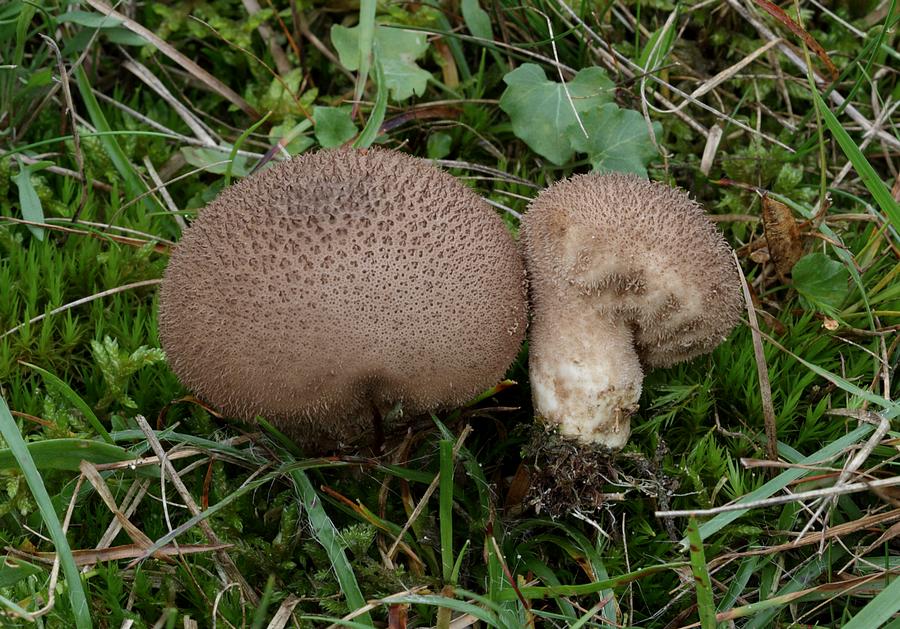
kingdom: Fungi
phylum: Basidiomycota
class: Agaricomycetes
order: Agaricales
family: Lycoperdaceae
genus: Lycoperdon
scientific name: Lycoperdon nigrescens
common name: sortagtig støvbold
